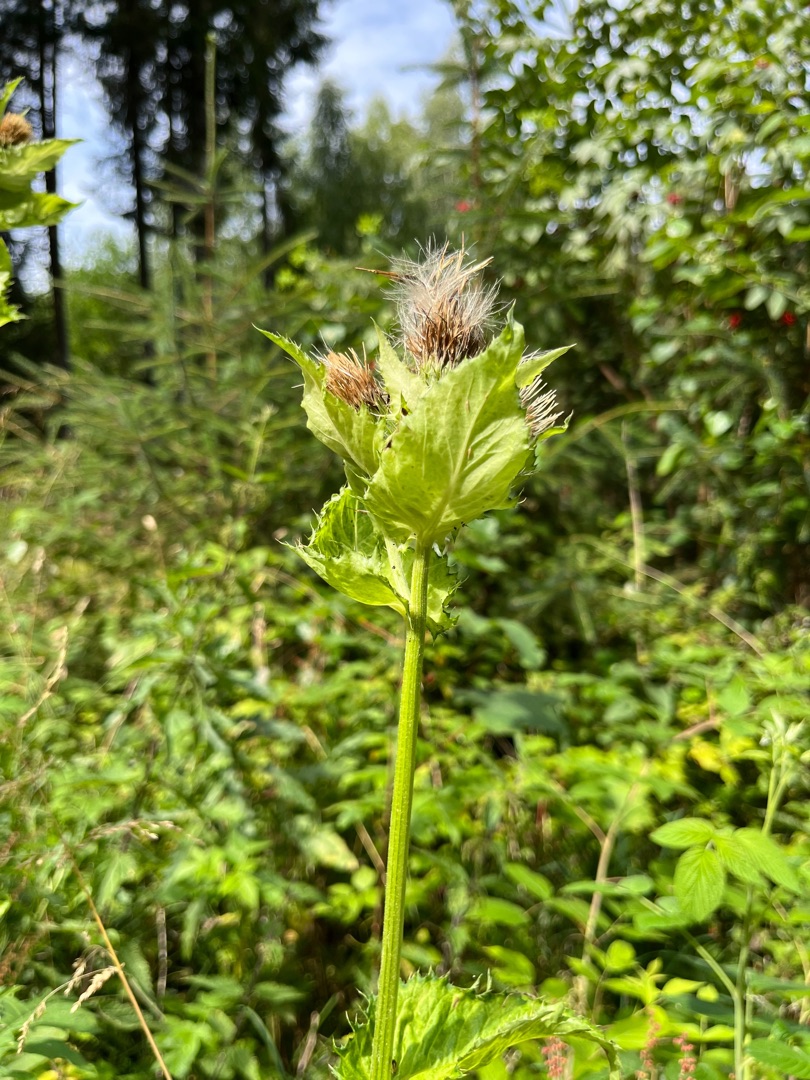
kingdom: Plantae
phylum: Tracheophyta
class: Magnoliopsida
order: Asterales
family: Asteraceae
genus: Cirsium
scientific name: Cirsium oleraceum
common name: Kål-tidsel
